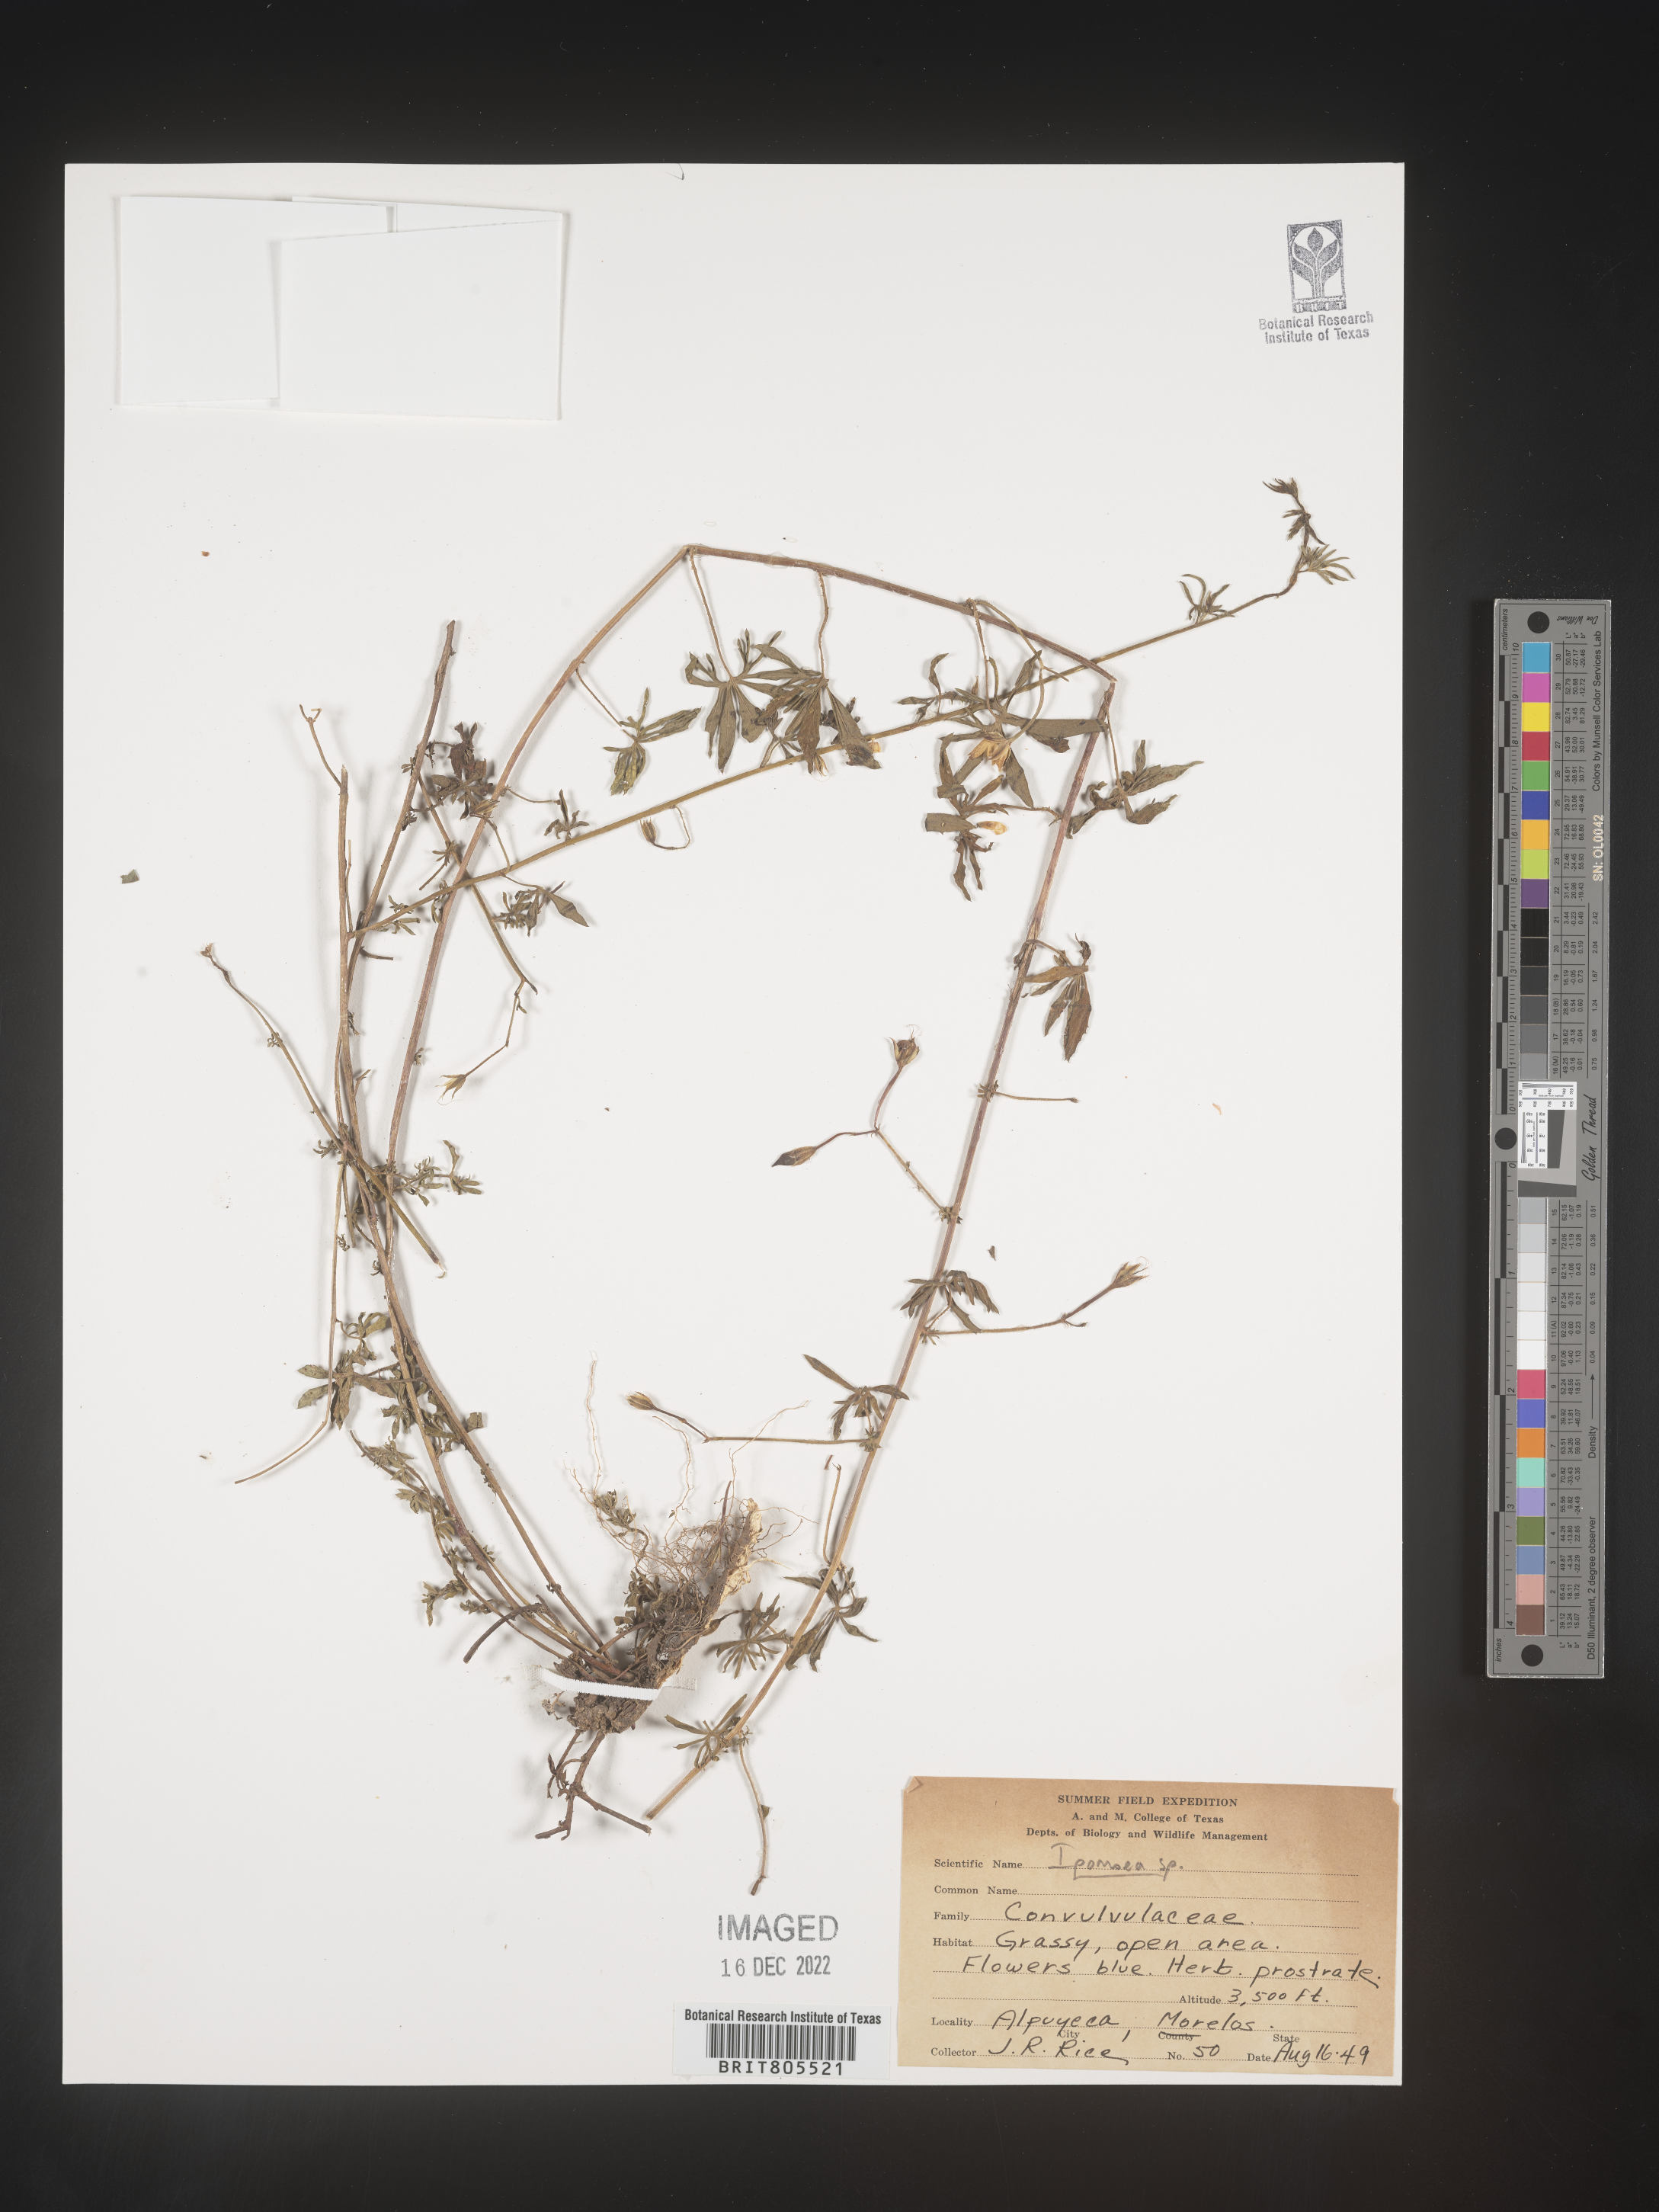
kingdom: Plantae
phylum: Tracheophyta
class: Magnoliopsida
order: Solanales
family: Convolvulaceae
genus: Ipomoea
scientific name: Ipomoea
